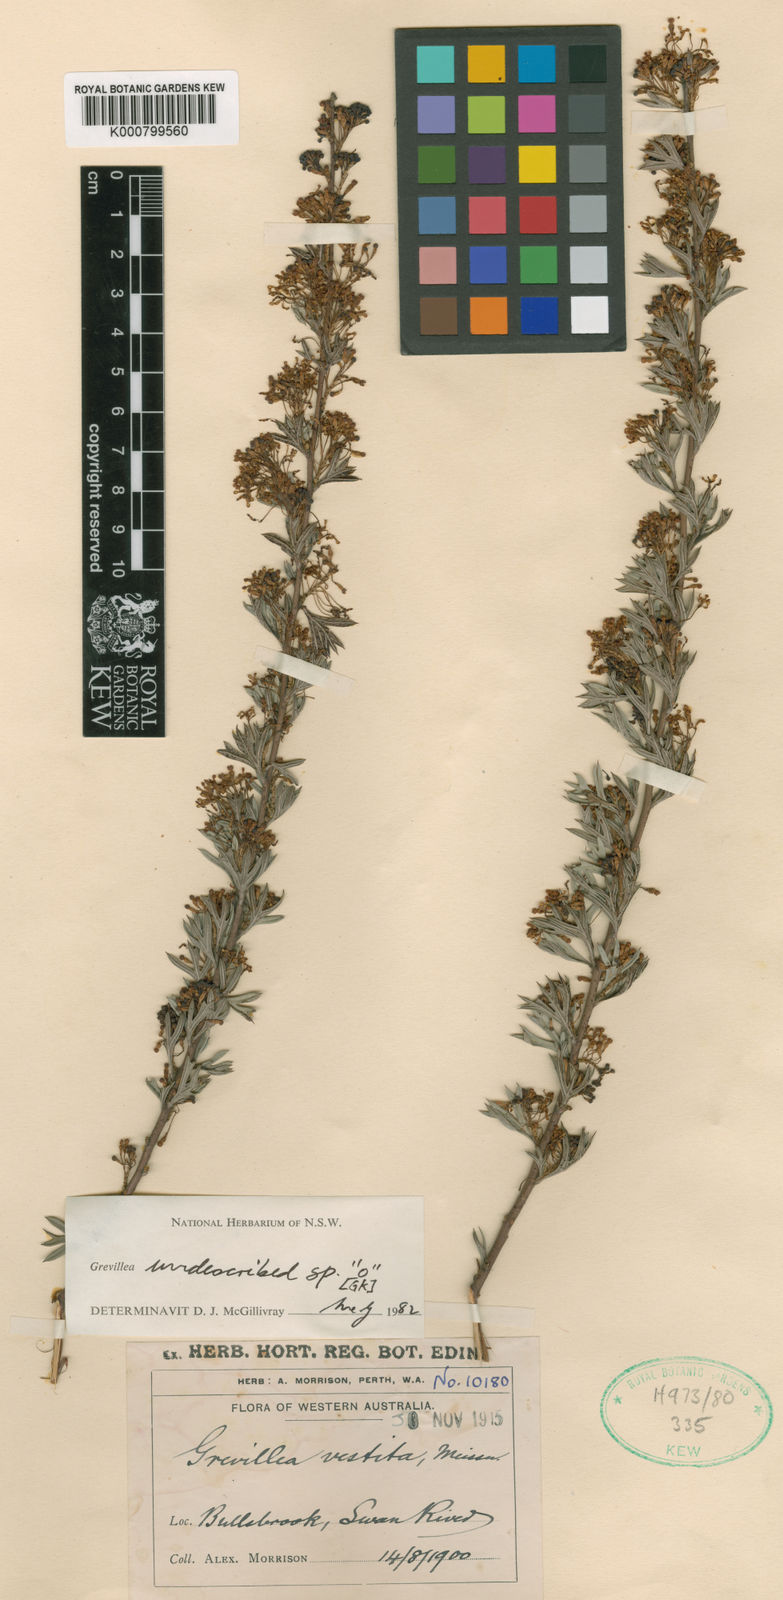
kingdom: Plantae
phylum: Tracheophyta
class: Magnoliopsida
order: Proteales
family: Proteaceae
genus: Grevillea
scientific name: Grevillea curviloba
